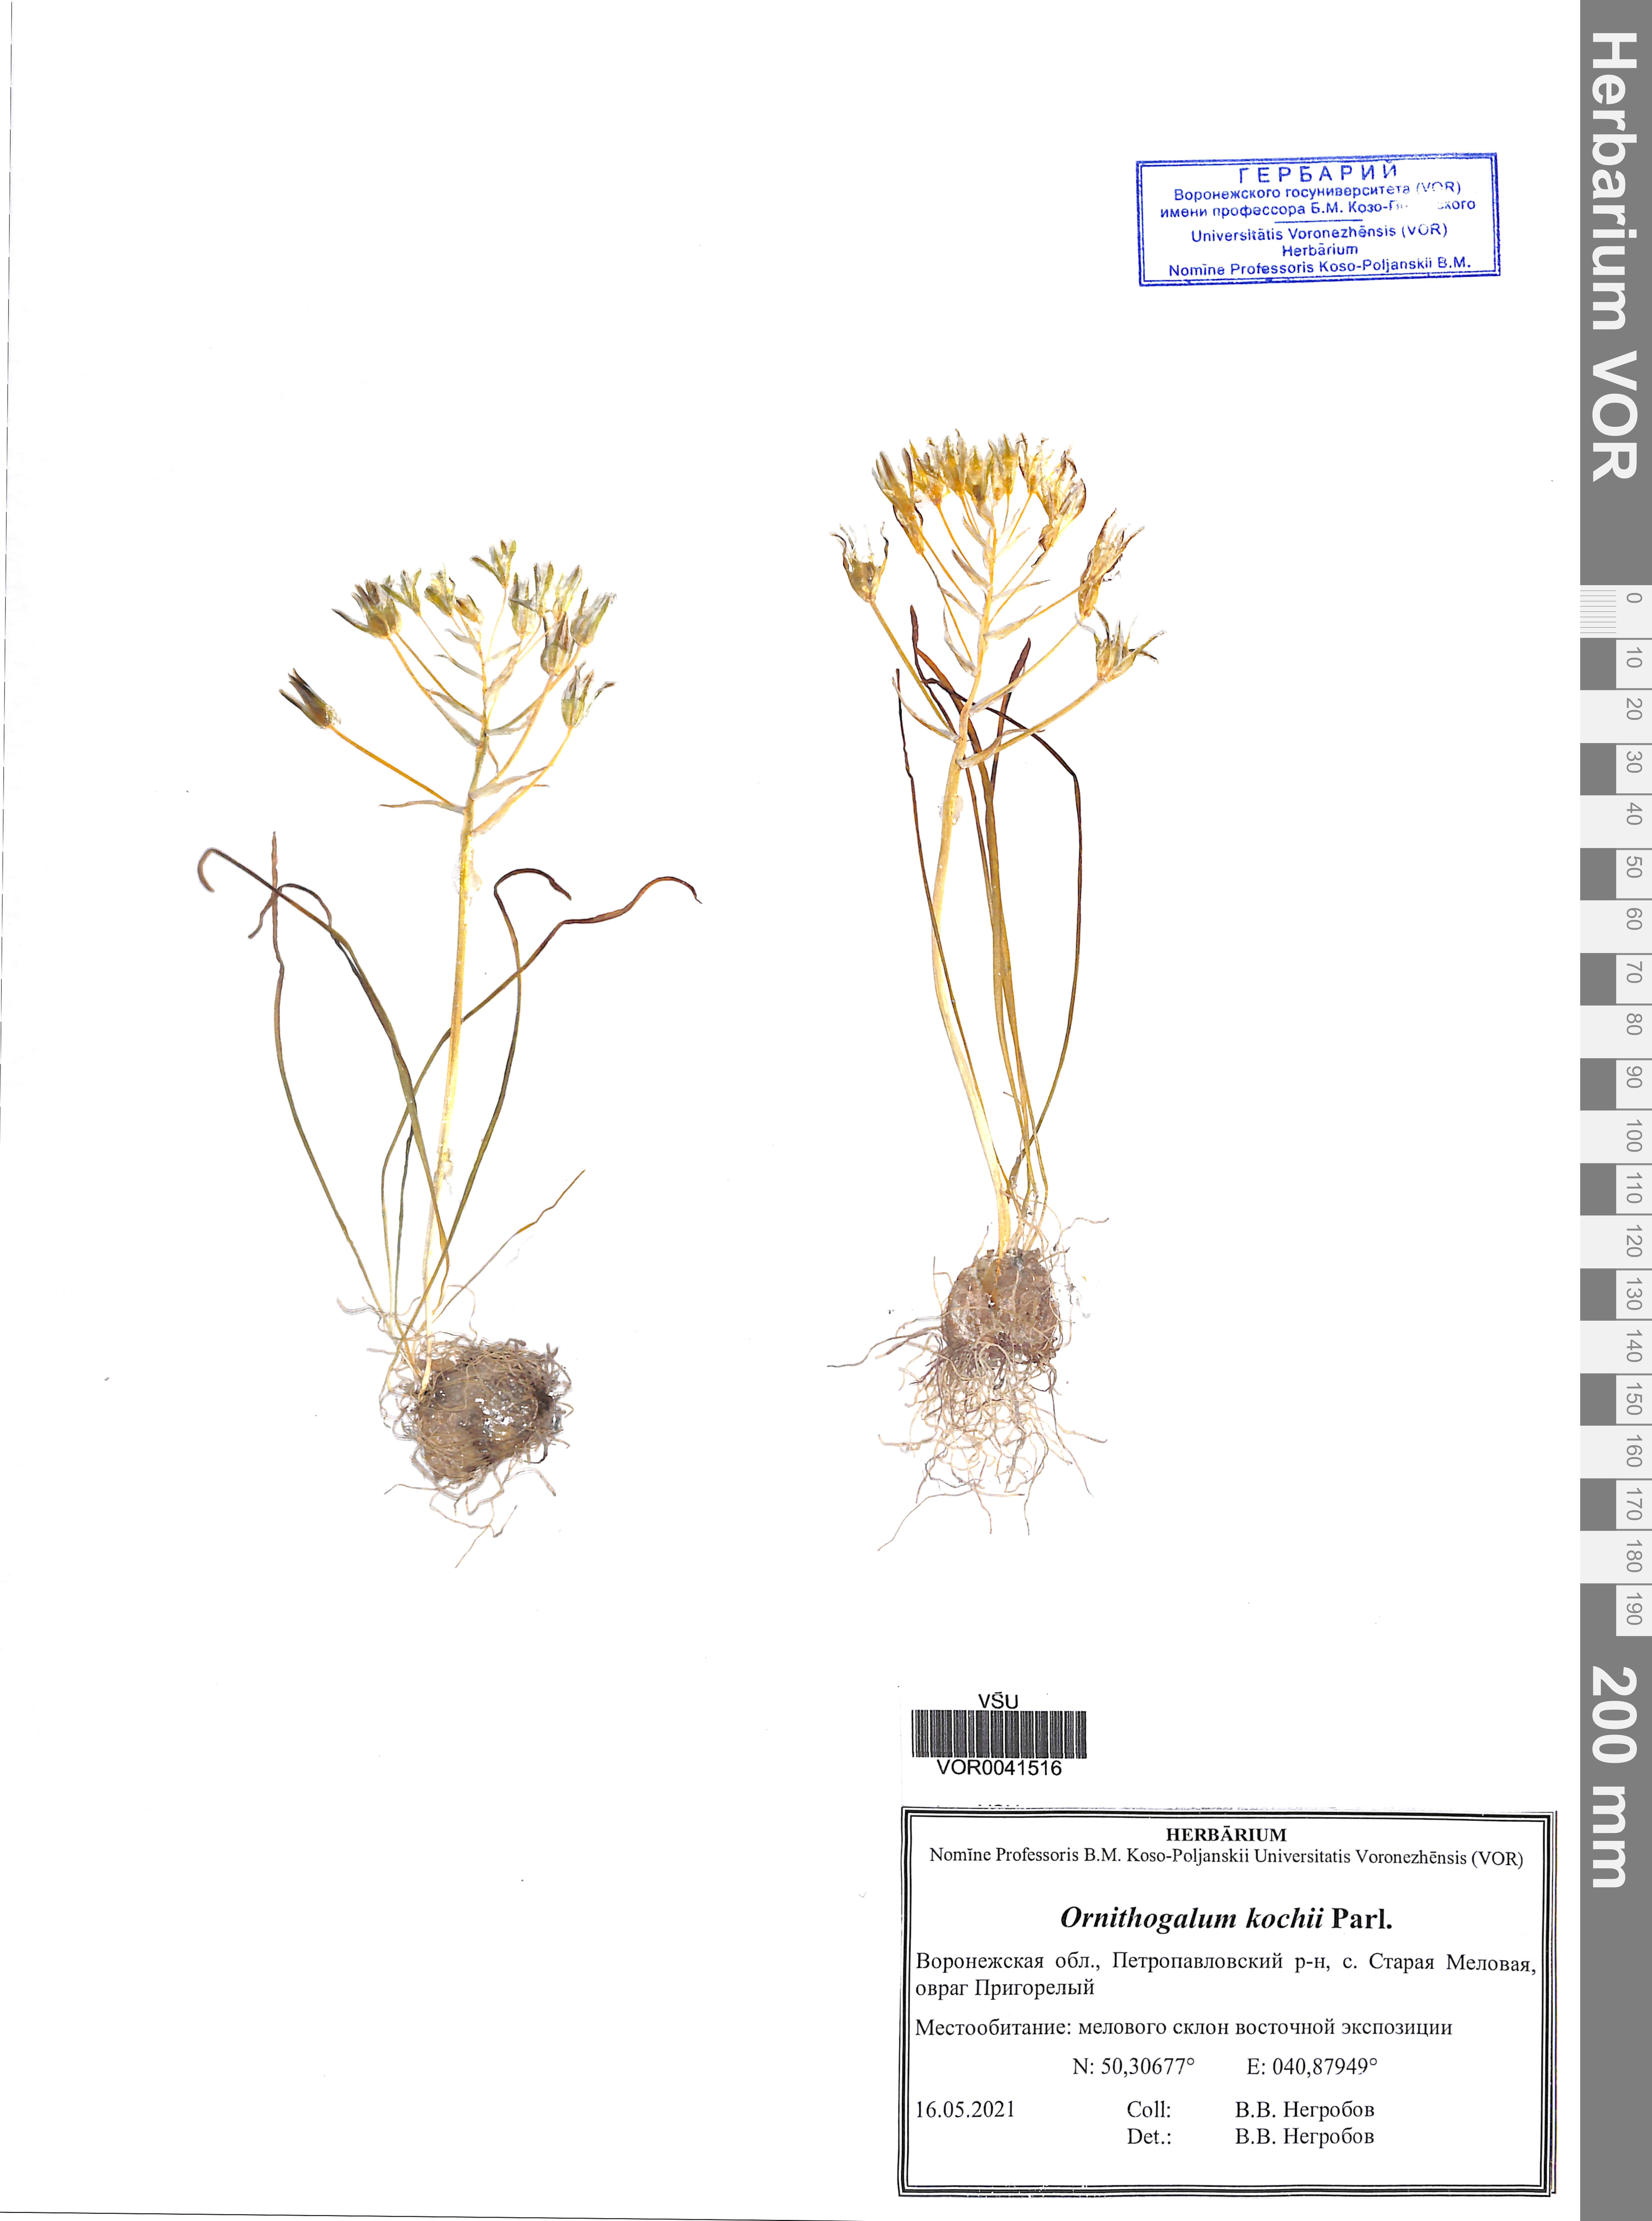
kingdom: Plantae
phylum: Tracheophyta
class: Liliopsida
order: Asparagales
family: Asparagaceae
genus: Ornithogalum
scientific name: Ornithogalum orthophyllum
